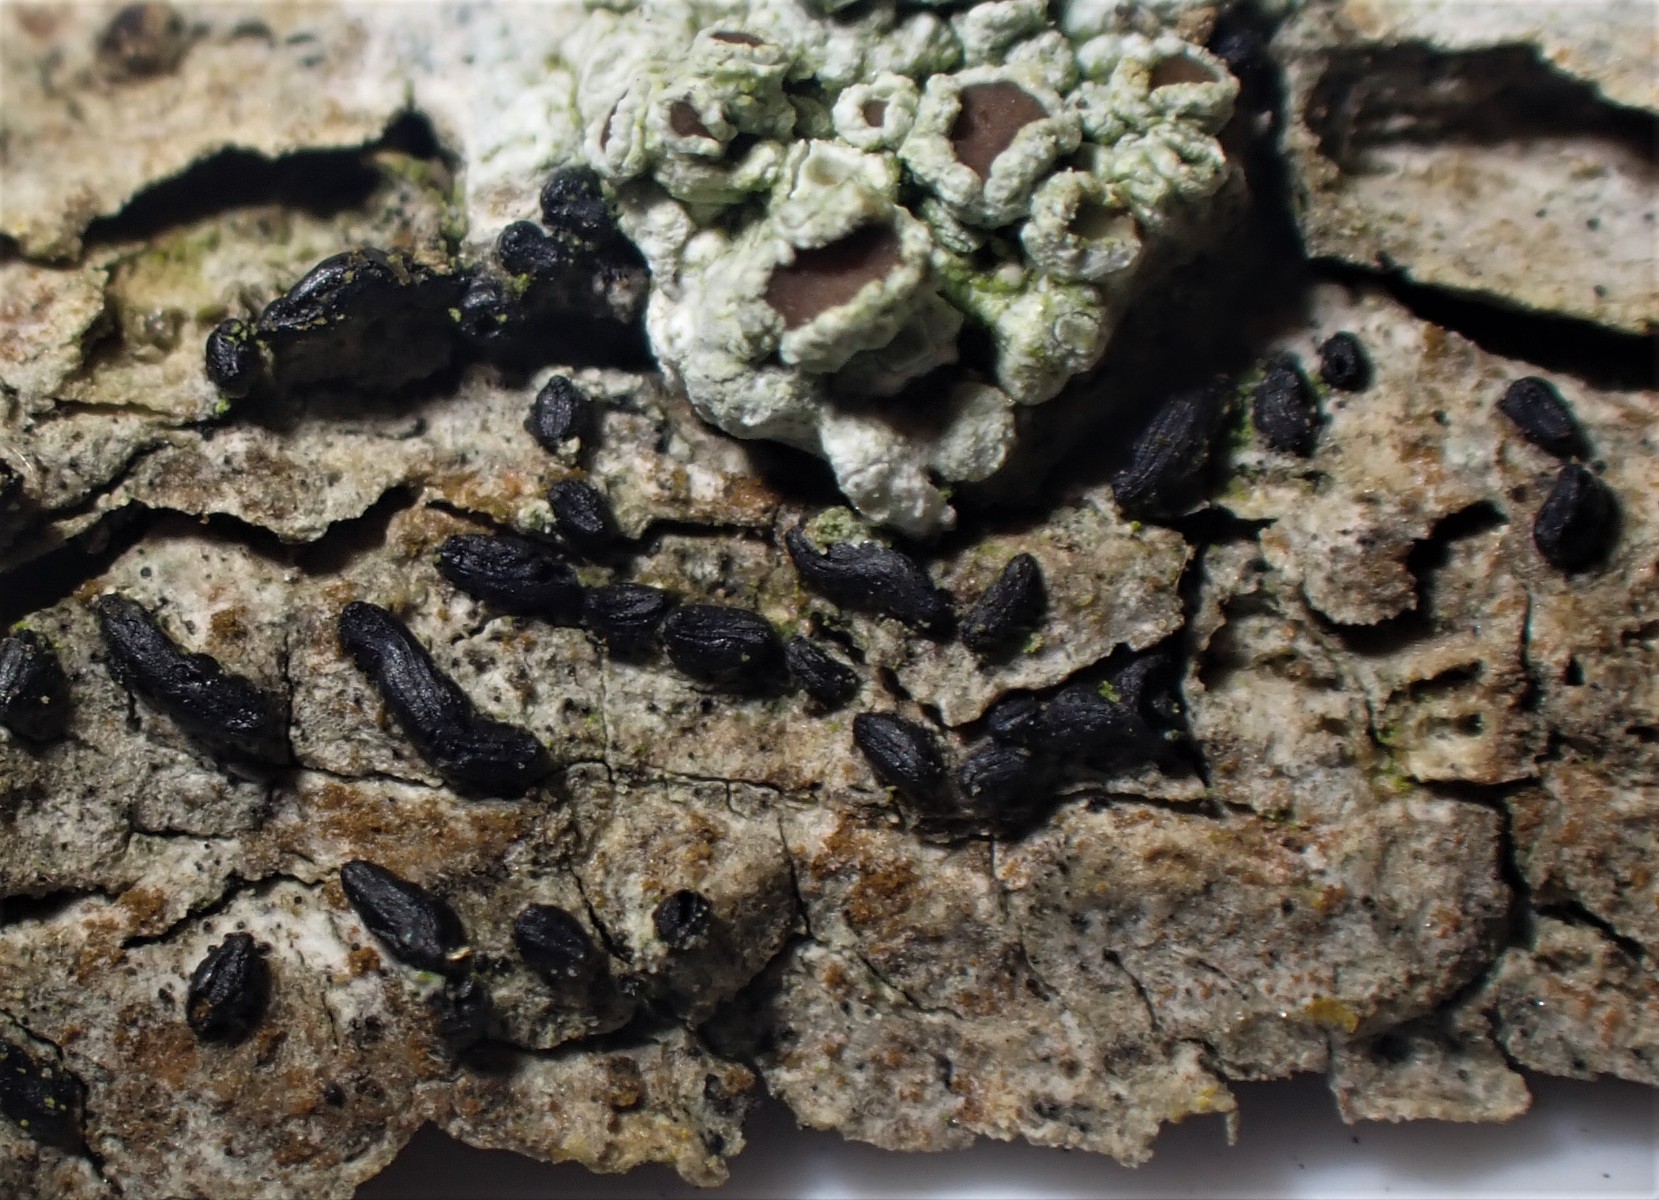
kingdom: Fungi
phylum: Ascomycota
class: Dothideomycetes
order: Hysteriales
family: Hysteriaceae
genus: Hysterium
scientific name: Hysterium acuminatum
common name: almindelig kulmund
